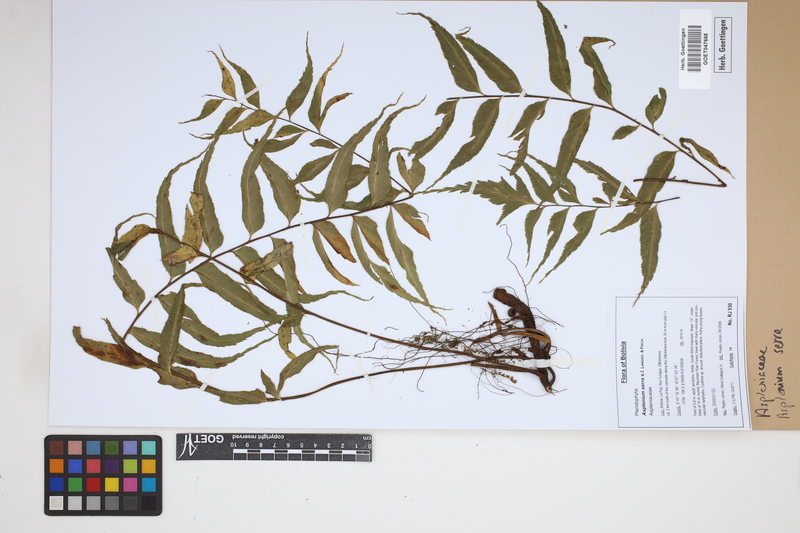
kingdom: Plantae
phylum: Tracheophyta
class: Polypodiopsida
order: Polypodiales
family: Aspleniaceae
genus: Asplenium
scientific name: Asplenium serra
